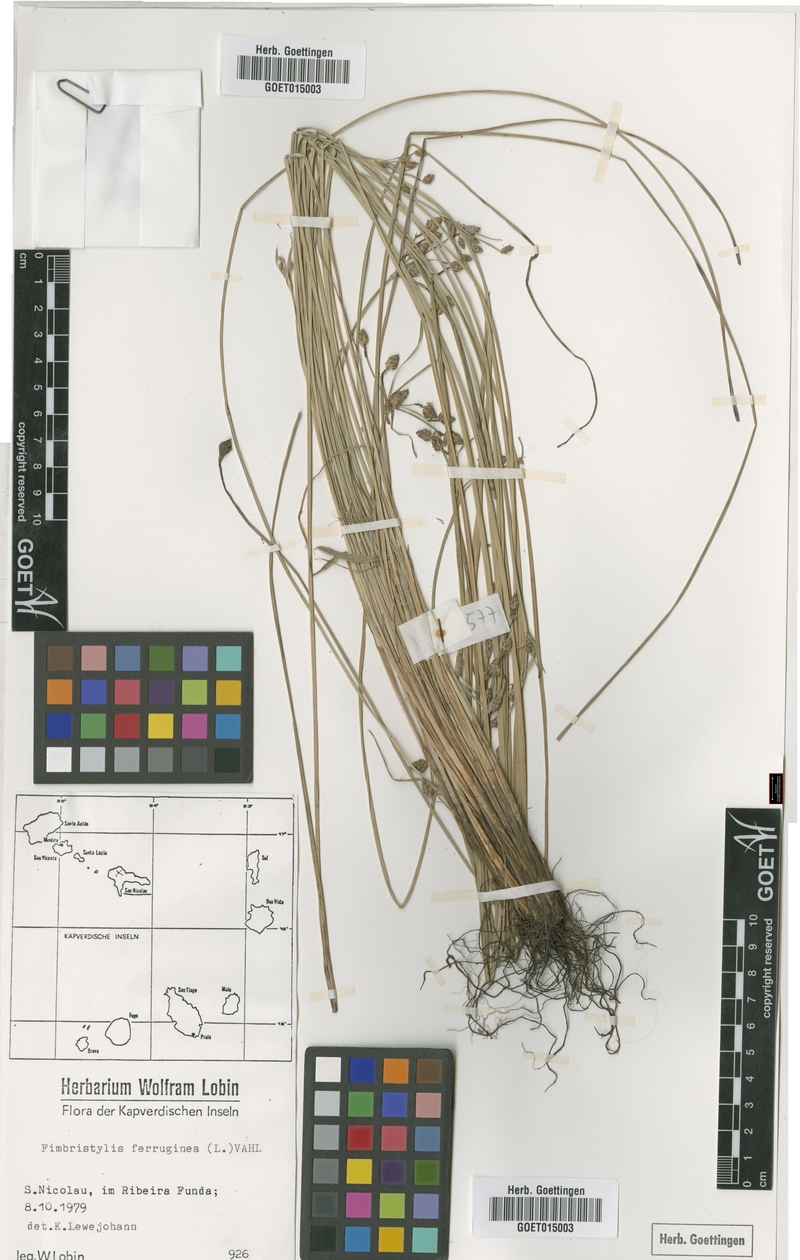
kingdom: Plantae
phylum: Tracheophyta
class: Liliopsida
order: Poales
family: Cyperaceae
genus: Fimbristylis
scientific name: Fimbristylis ferruginea
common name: West indian fimbry
